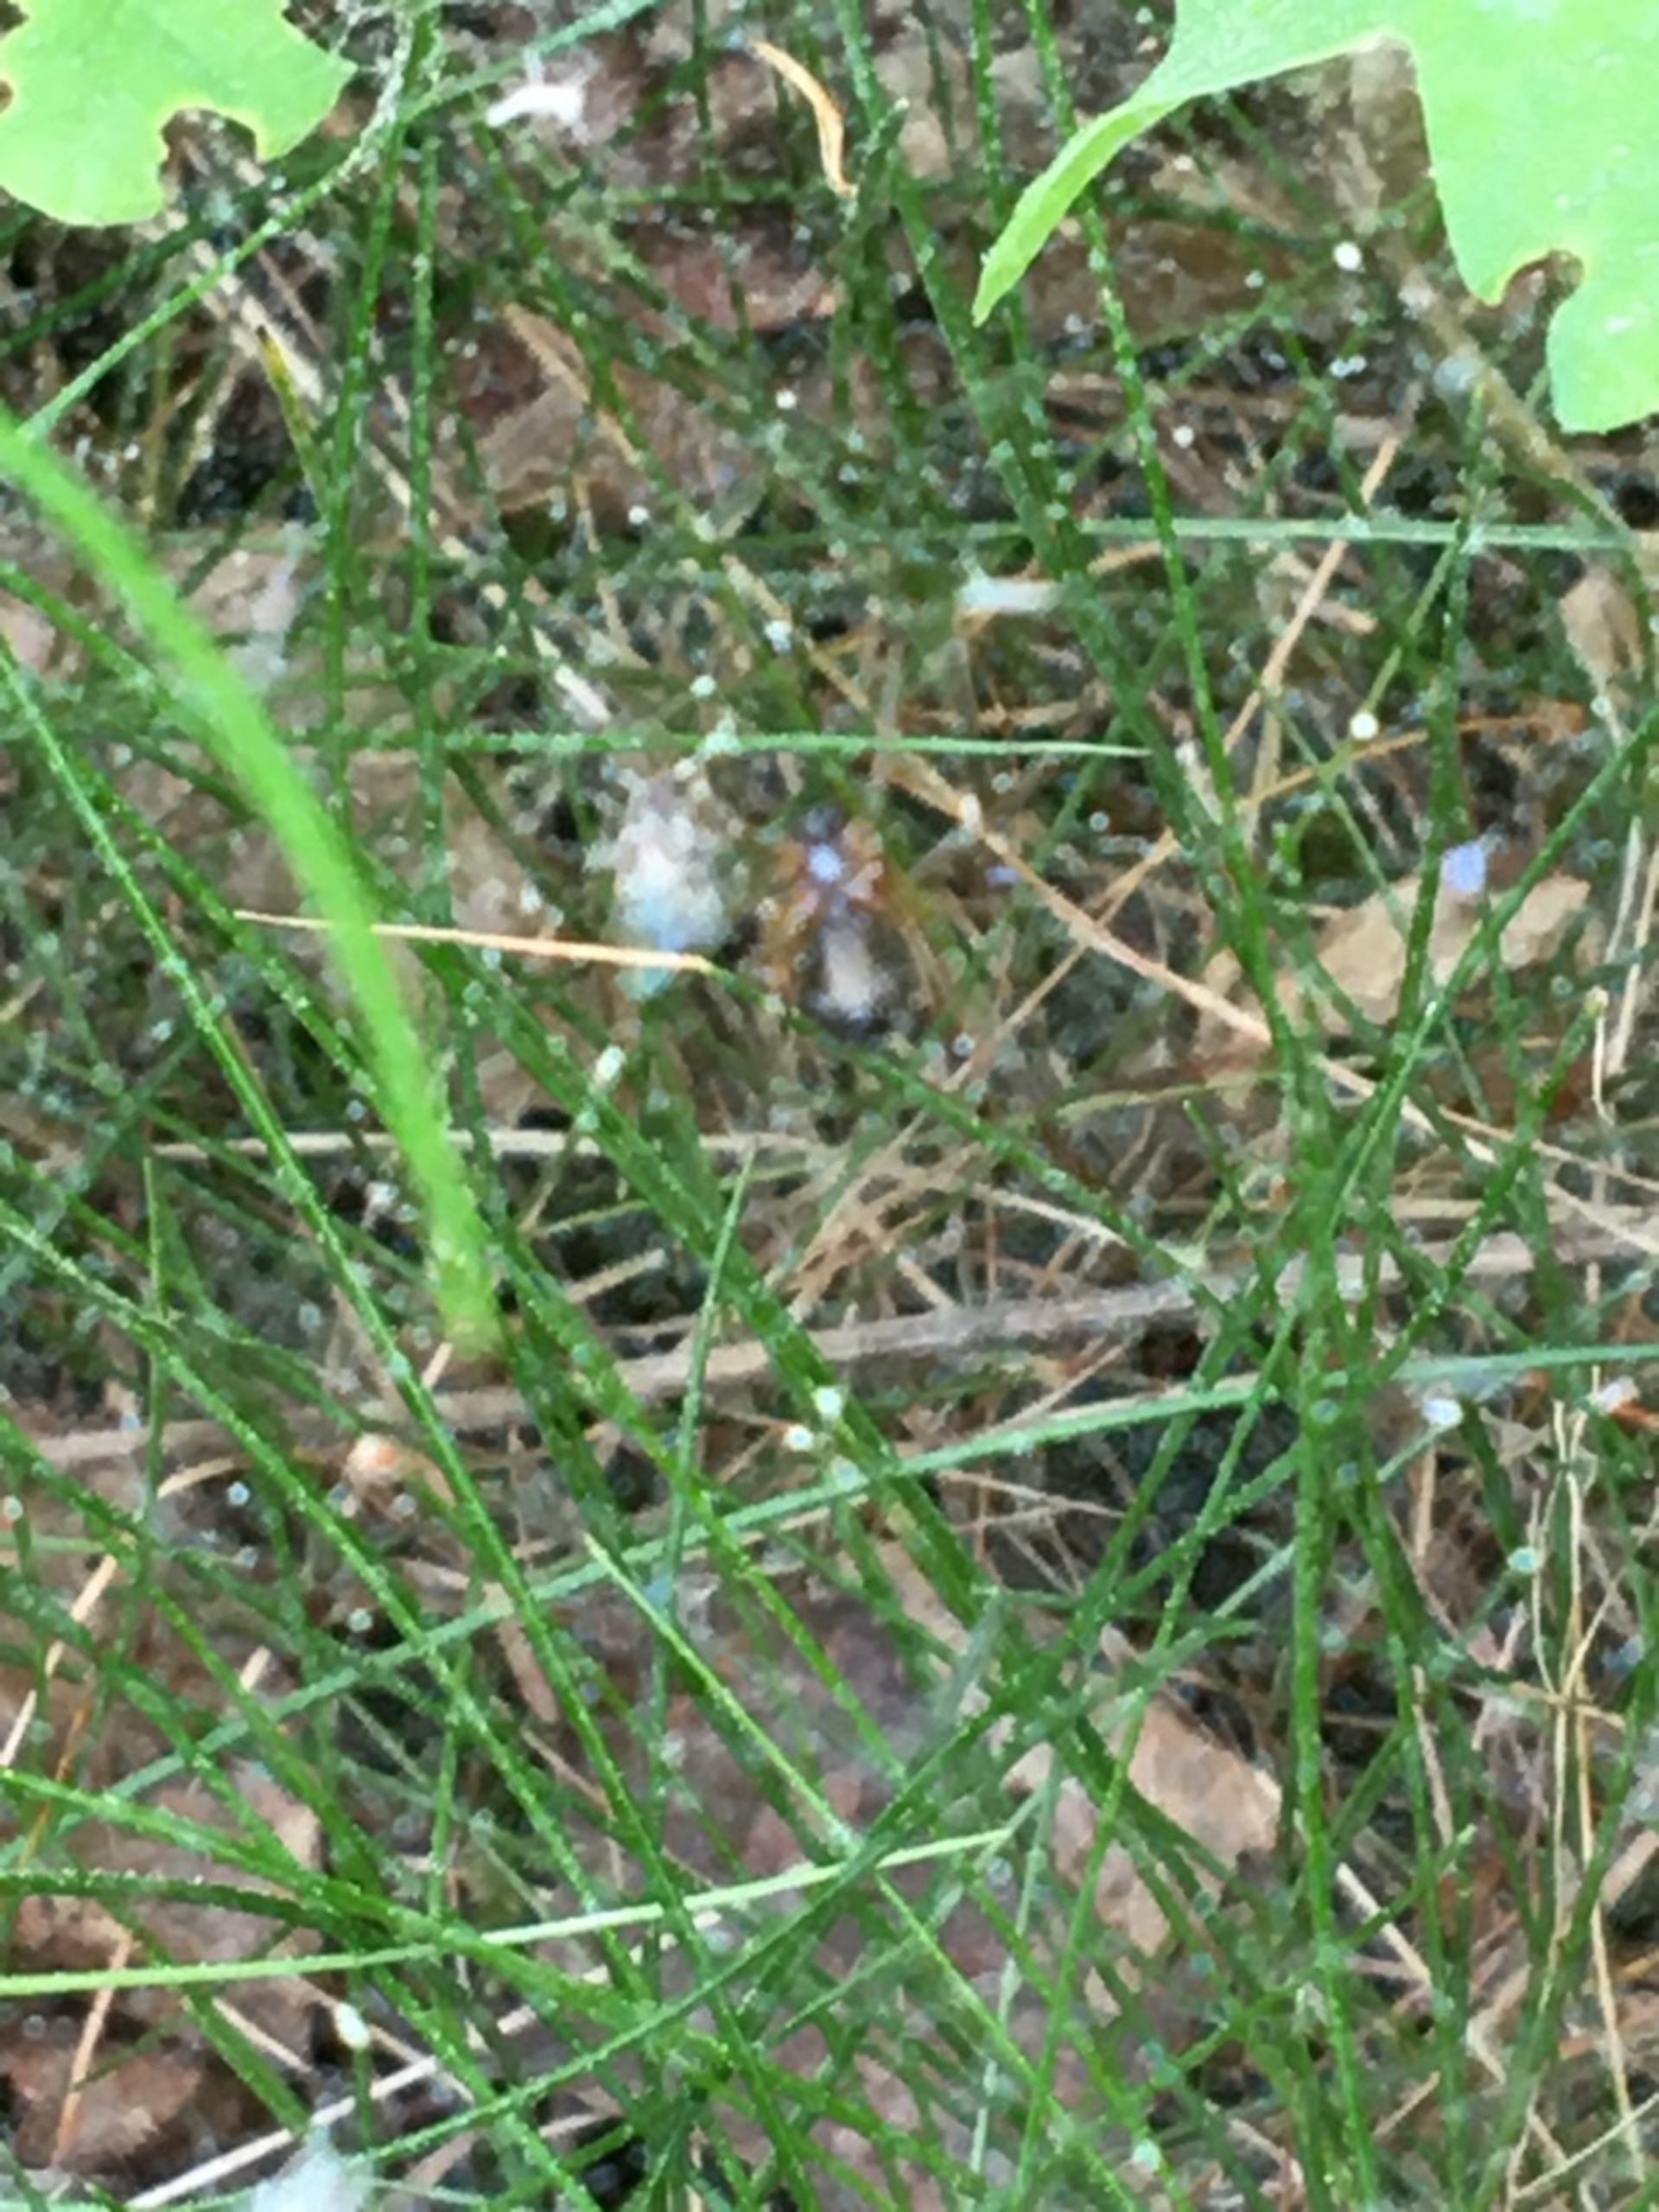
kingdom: Animalia
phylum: Arthropoda
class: Arachnida
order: Araneae
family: Linyphiidae
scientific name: Linyphiidae
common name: Tæppespindere
